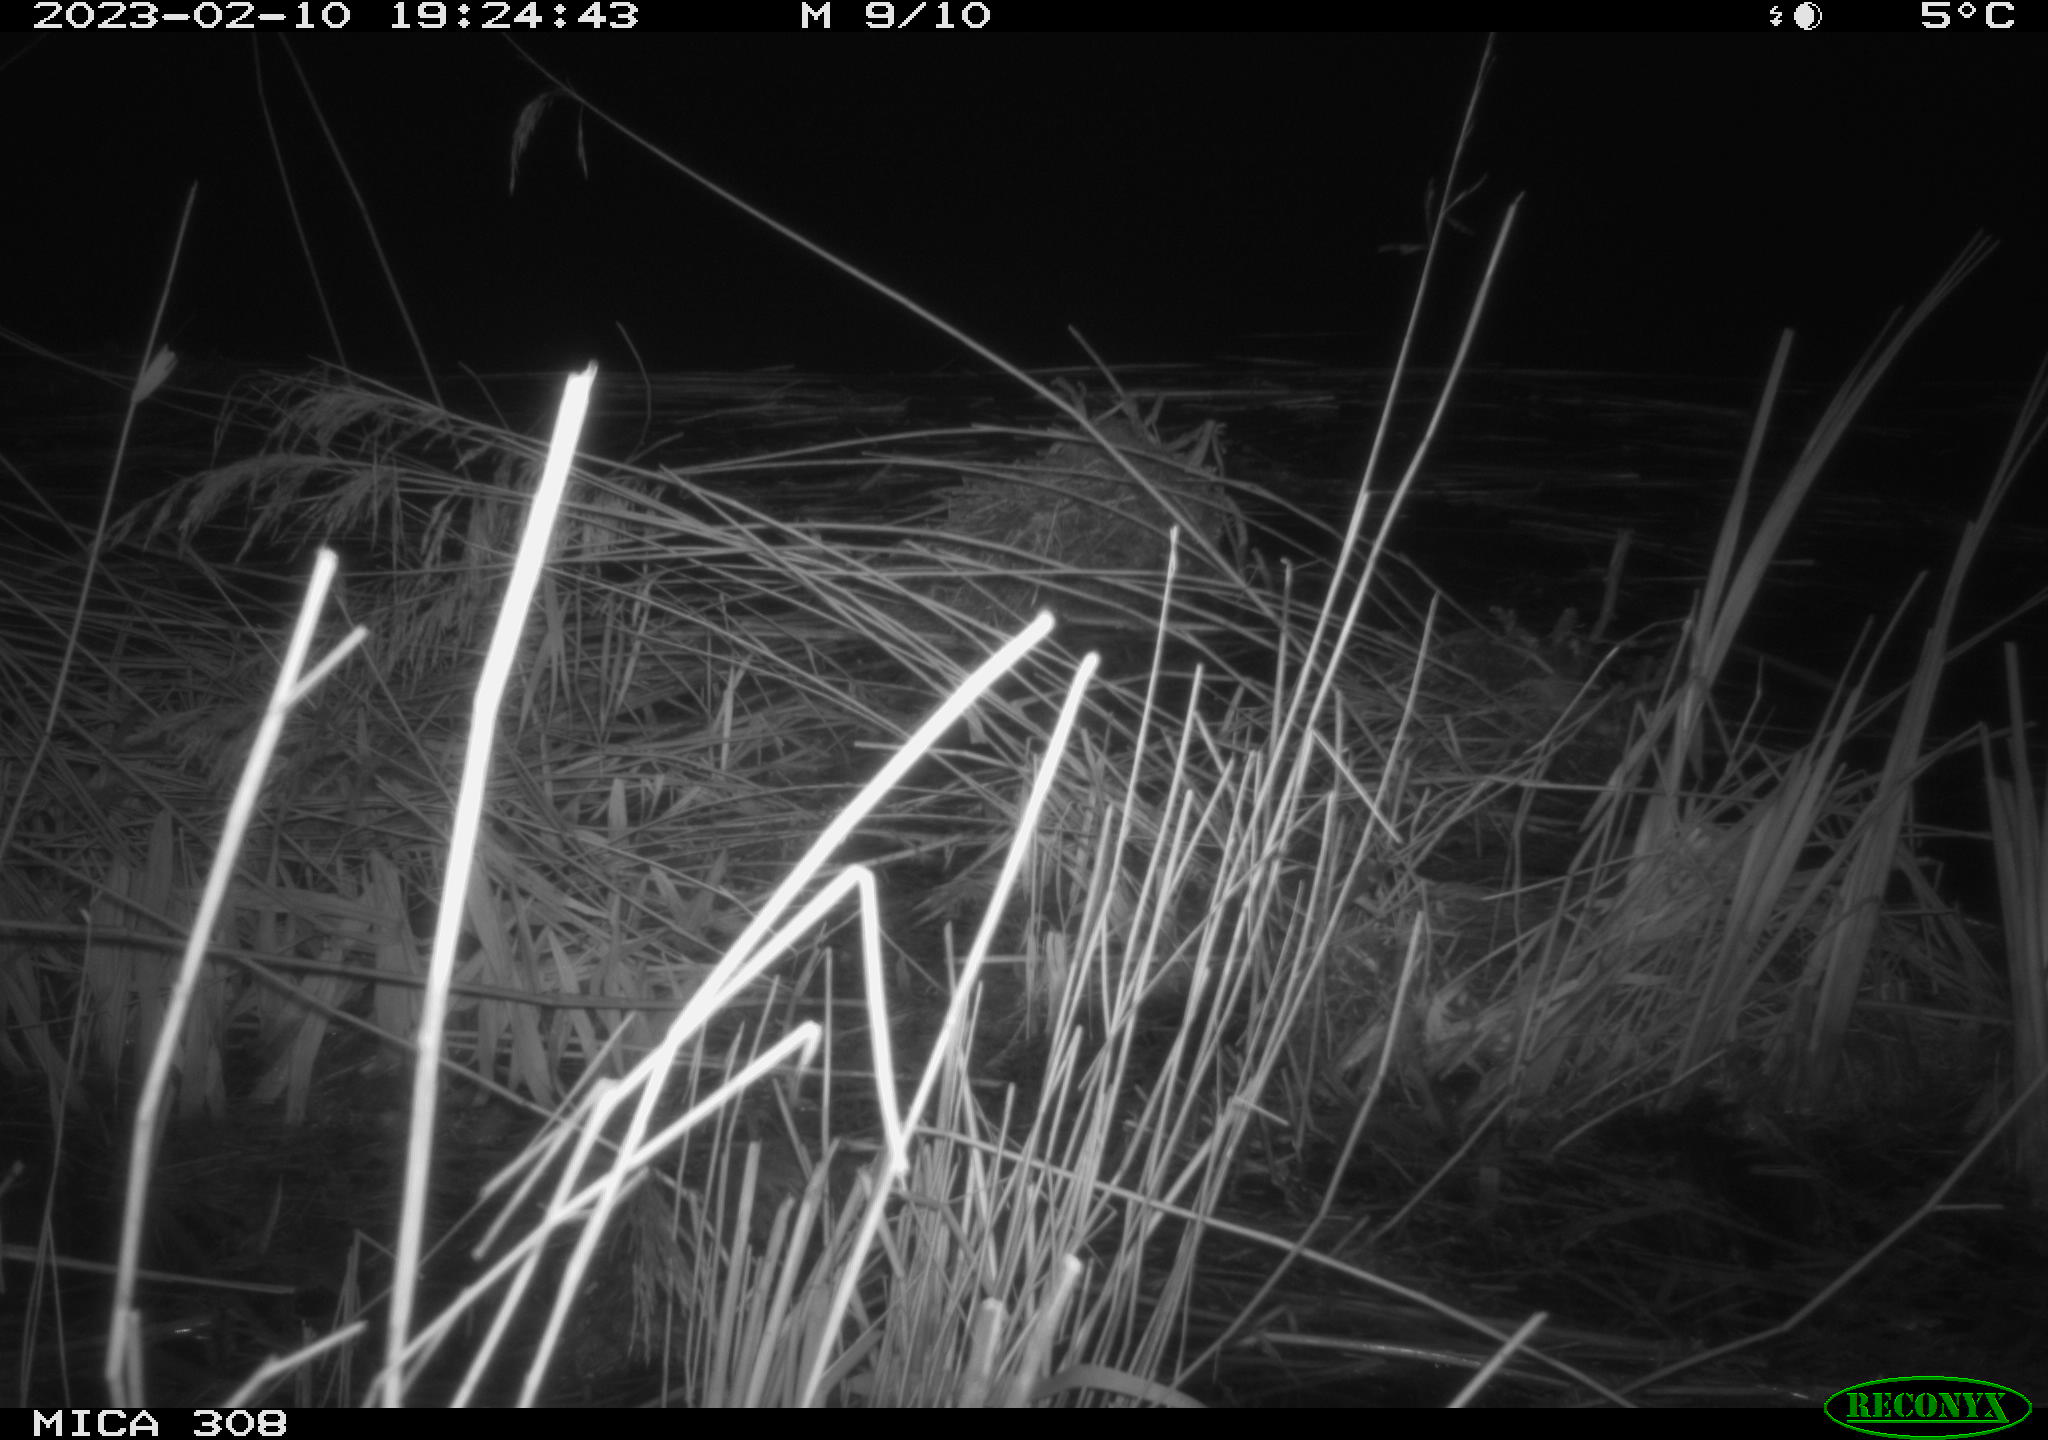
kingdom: Animalia
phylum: Chordata
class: Mammalia
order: Rodentia
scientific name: Rodentia
